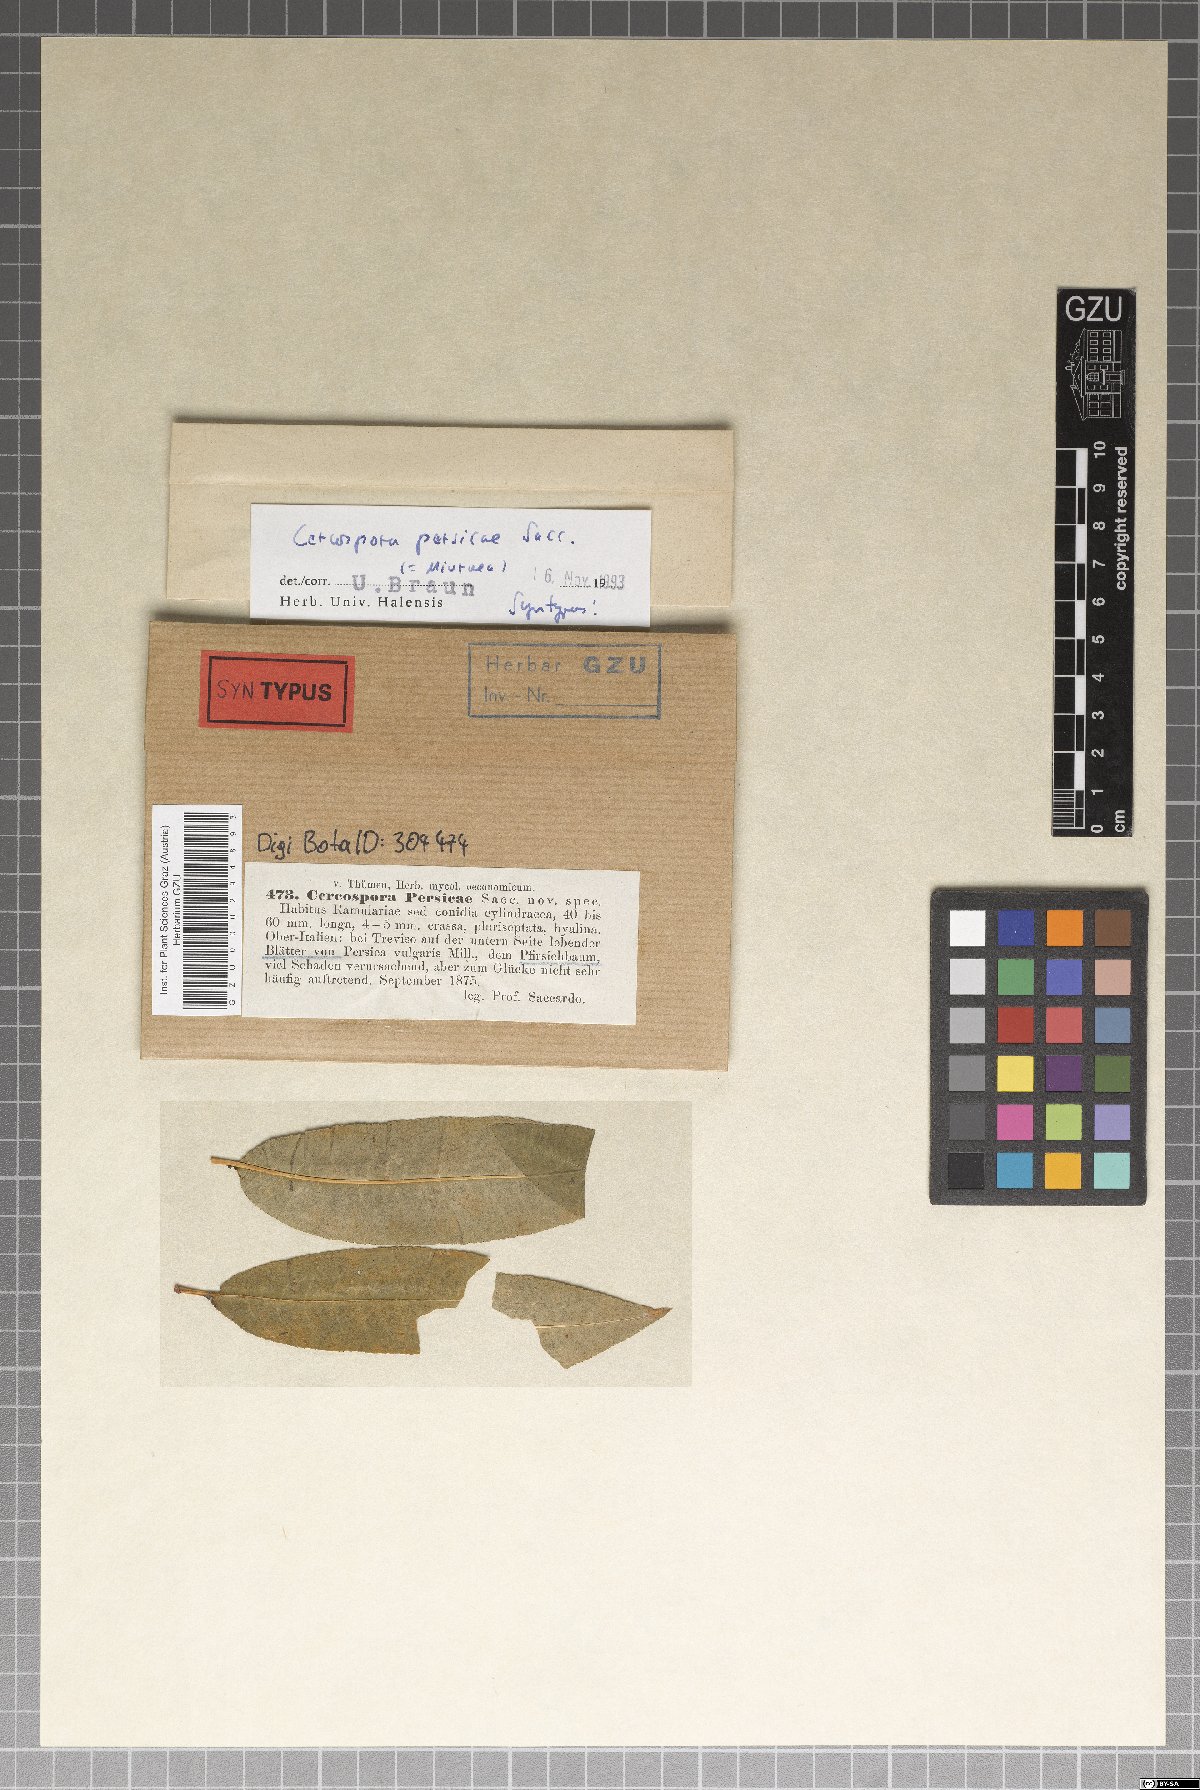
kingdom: Fungi
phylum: Ascomycota
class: Dothideomycetes
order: Mycosphaerellales
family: Mycosphaerellaceae
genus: Mycosphaerella
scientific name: Mycosphaerella pruni-persicae
